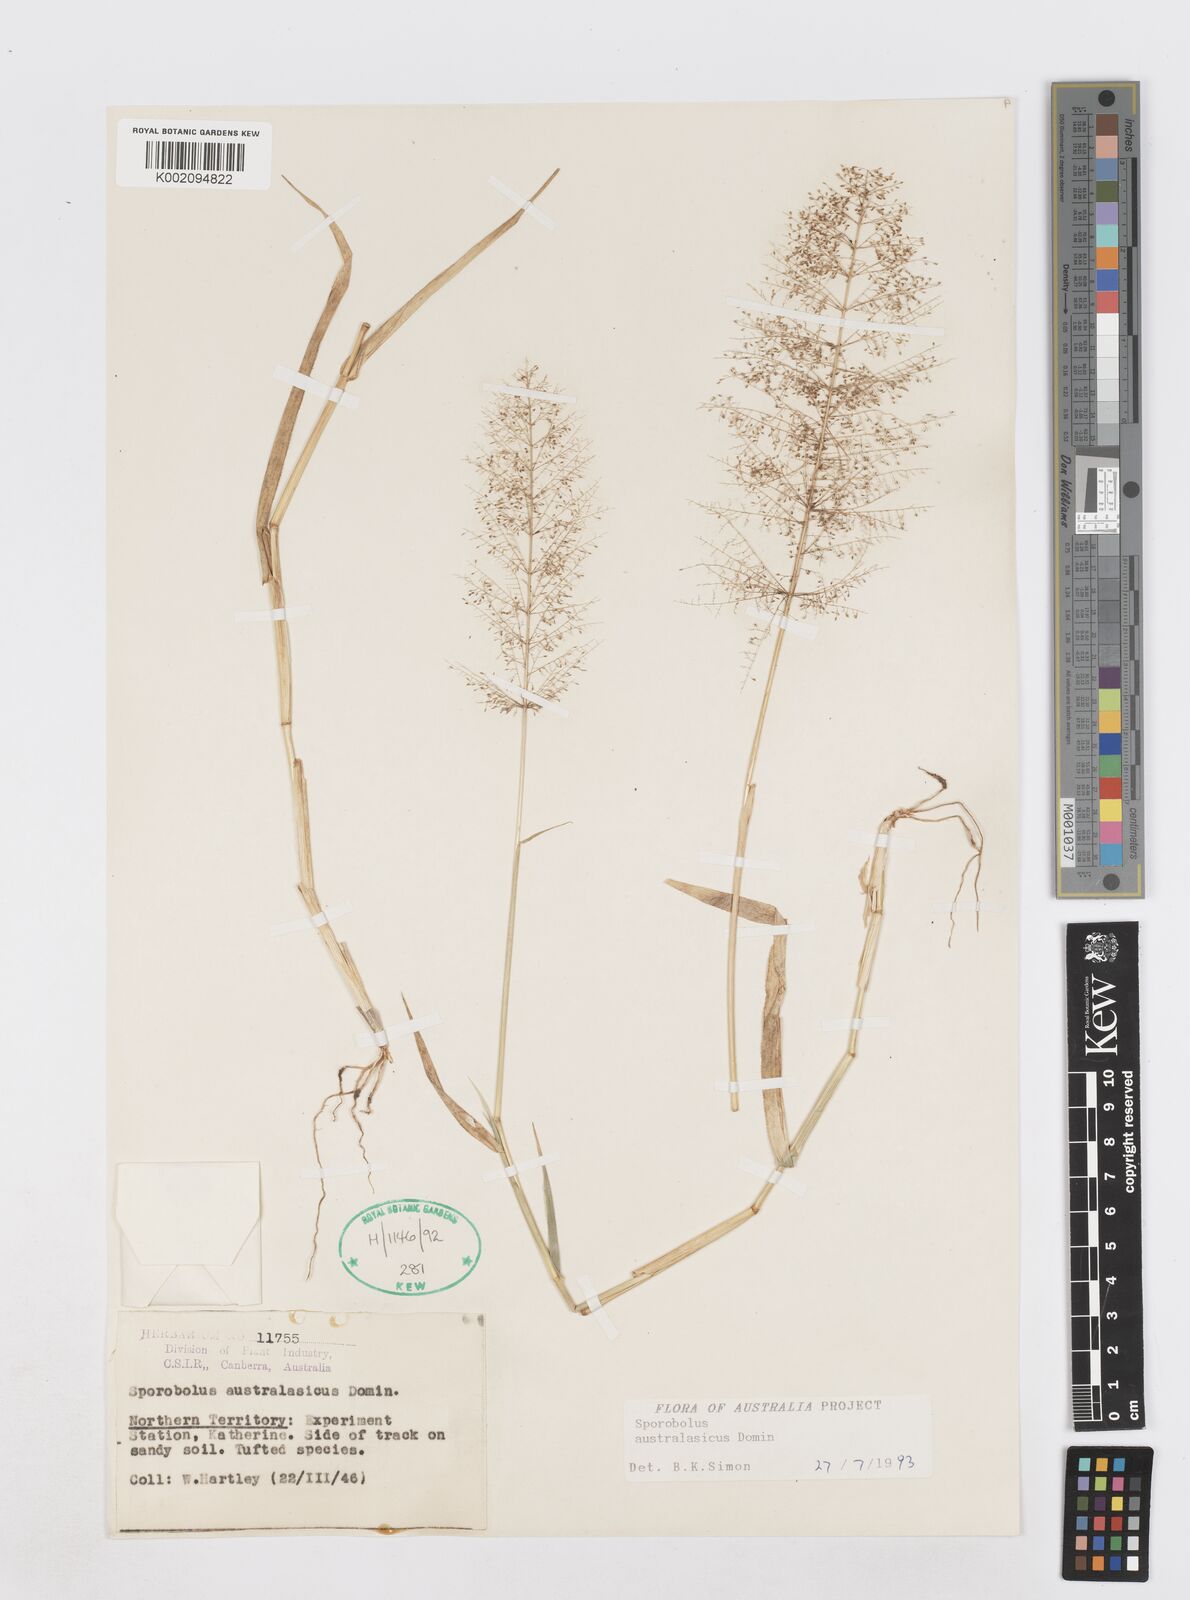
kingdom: Plantae
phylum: Tracheophyta
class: Liliopsida
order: Poales
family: Poaceae
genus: Sporobolus
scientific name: Sporobolus australasicus
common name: Australian dropseed
